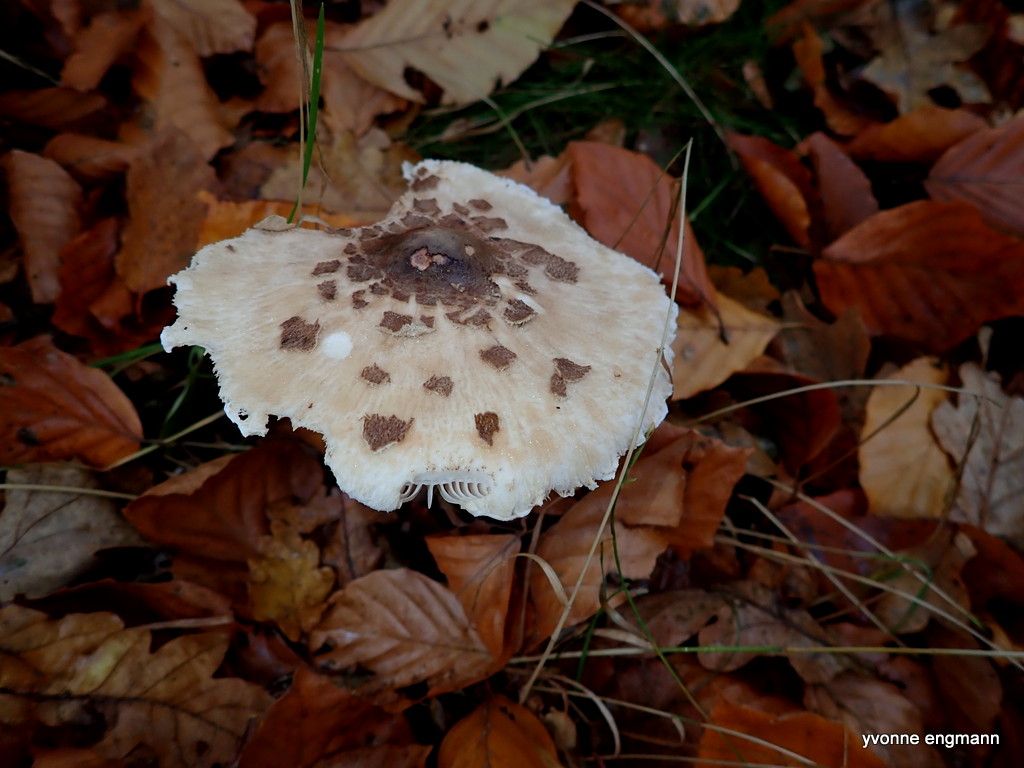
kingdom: Fungi
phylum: Basidiomycota
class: Agaricomycetes
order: Agaricales
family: Agaricaceae
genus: Macrolepiota
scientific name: Macrolepiota
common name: kæmpeparasolhat
